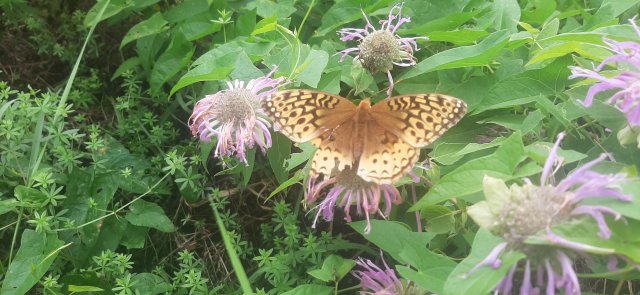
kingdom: Animalia
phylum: Arthropoda
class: Insecta
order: Lepidoptera
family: Nymphalidae
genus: Speyeria
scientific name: Speyeria cybele
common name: Great Spangled Fritillary
